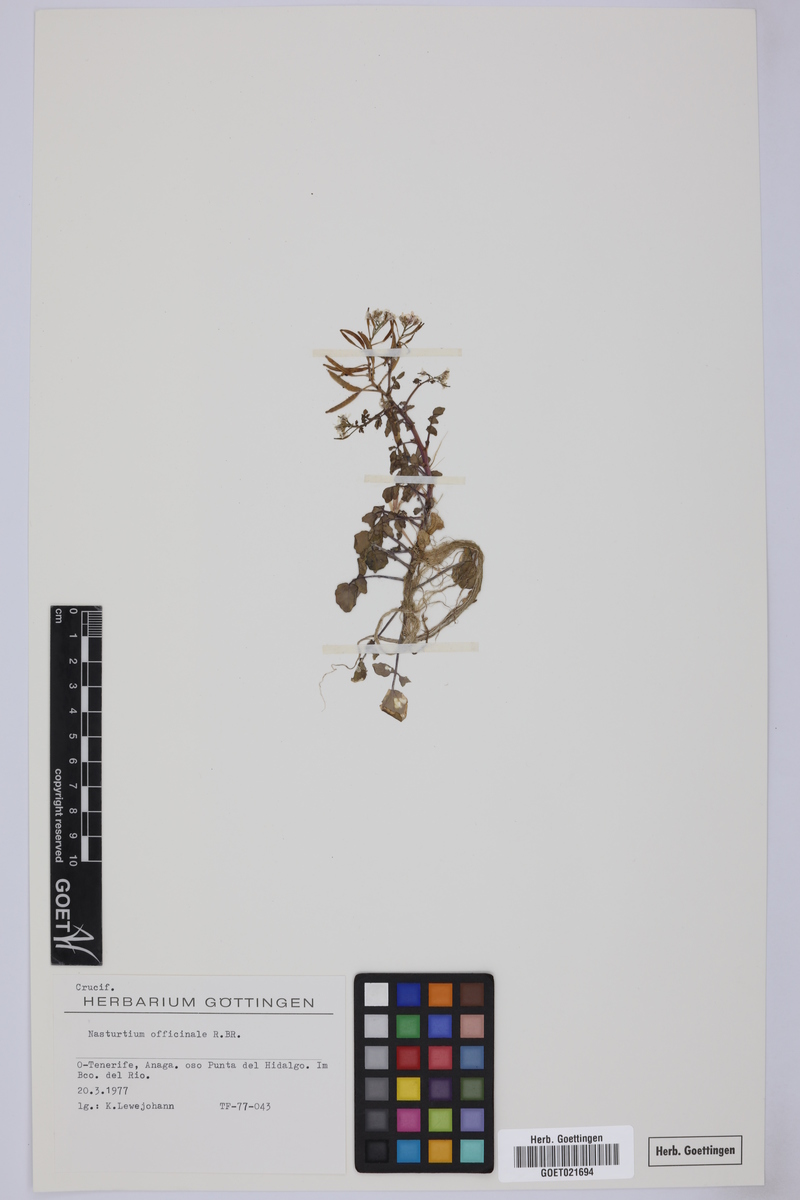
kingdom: Plantae
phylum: Tracheophyta
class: Magnoliopsida
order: Brassicales
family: Brassicaceae
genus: Nasturtium
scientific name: Nasturtium officinale
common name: Watercress
